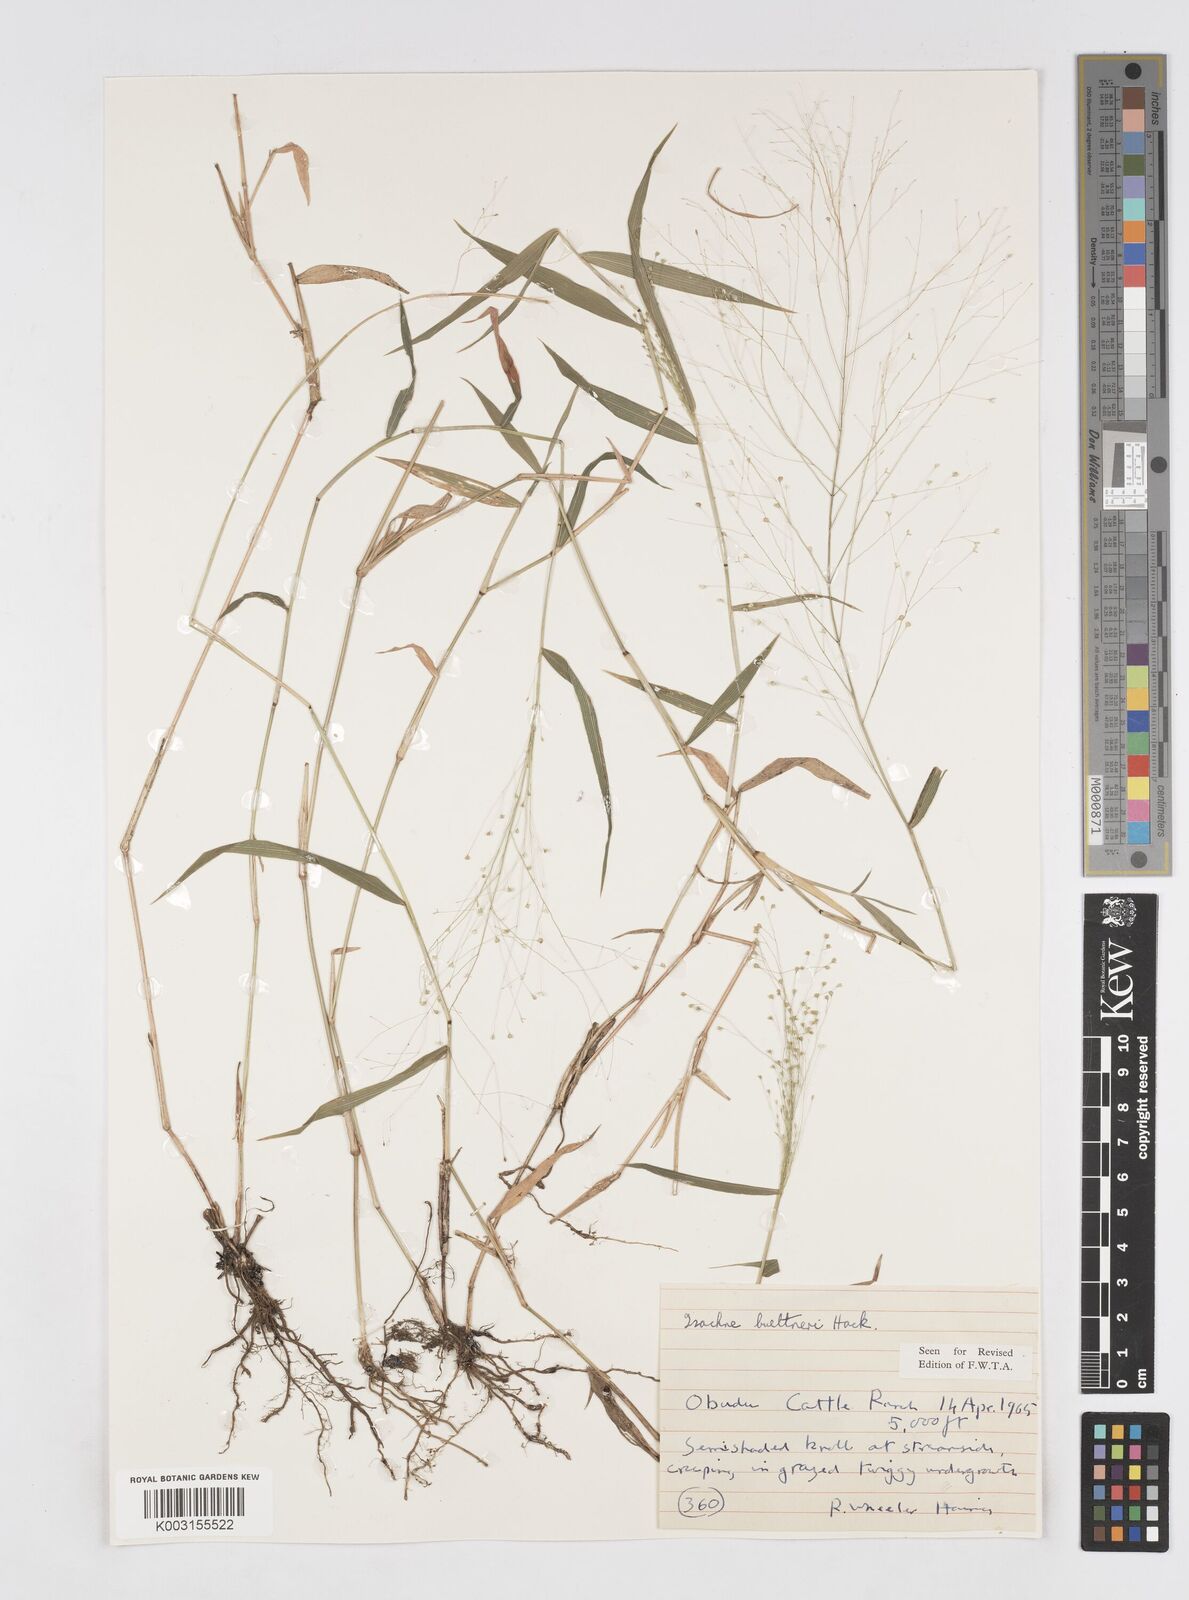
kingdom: Plantae
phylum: Tracheophyta
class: Liliopsida
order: Poales
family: Poaceae
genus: Isachne
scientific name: Isachne albens
